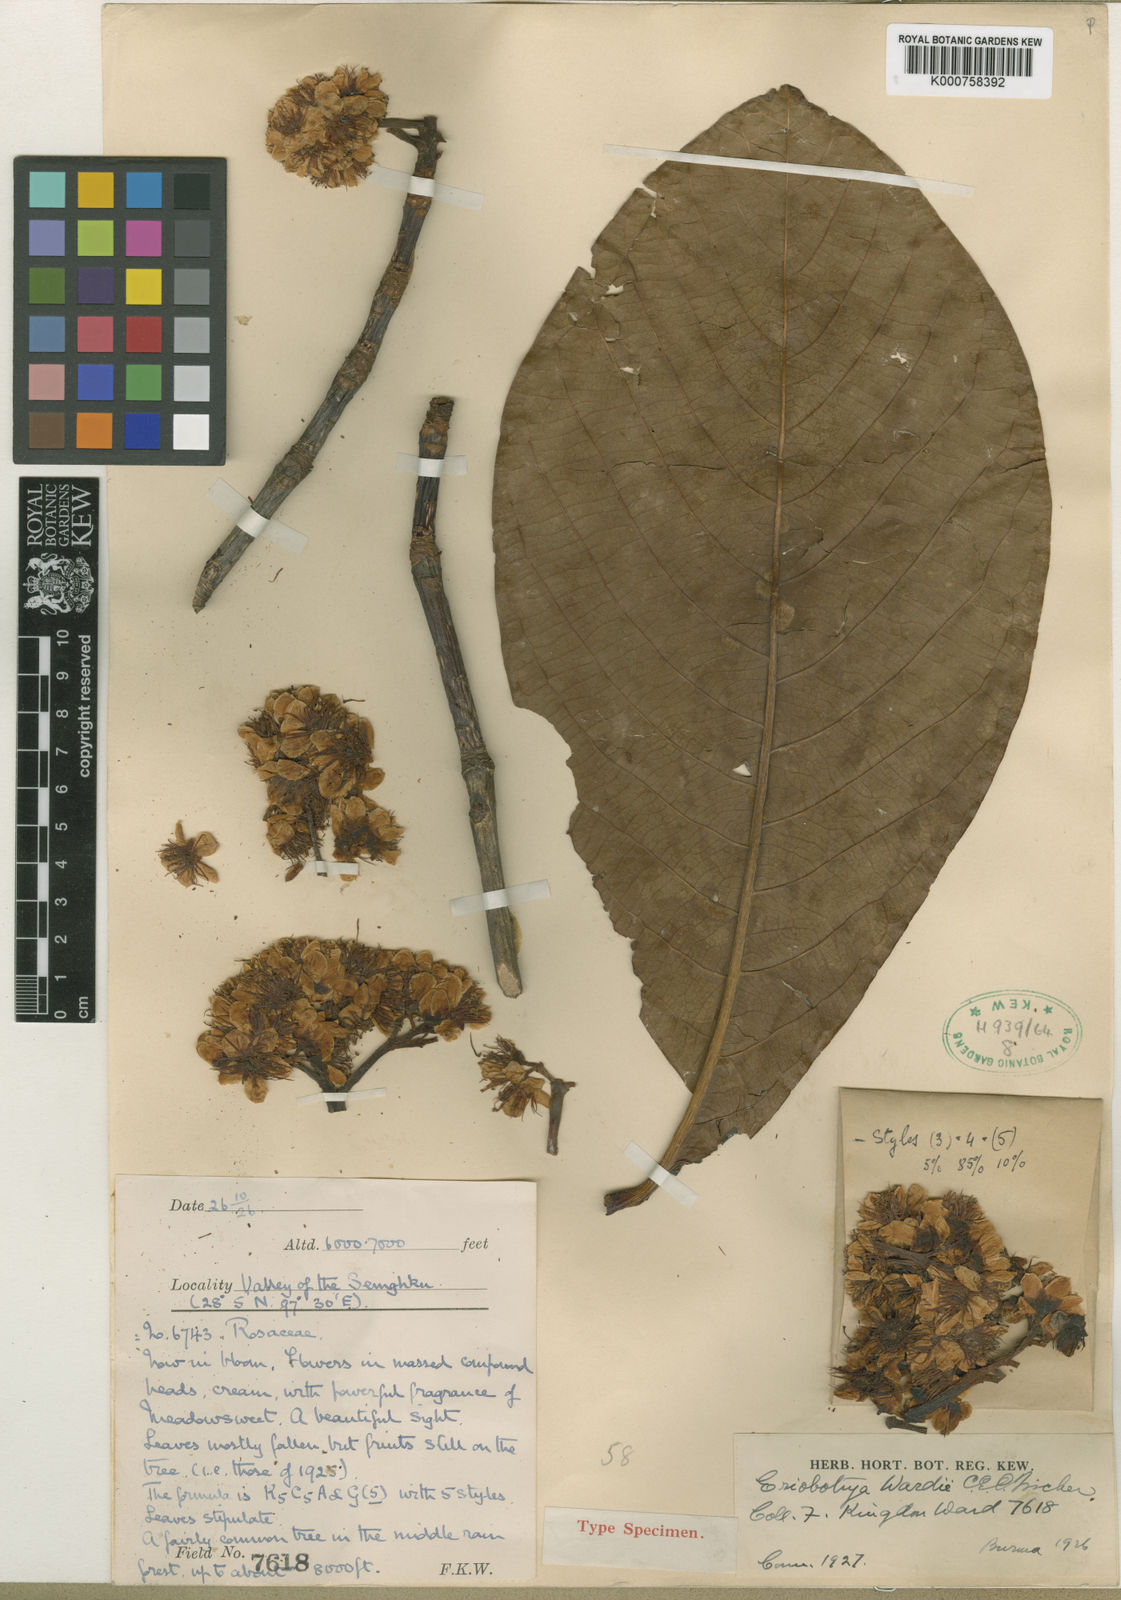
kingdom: Plantae
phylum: Tracheophyta
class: Magnoliopsida
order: Rosales
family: Rosaceae
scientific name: Rosaceae
